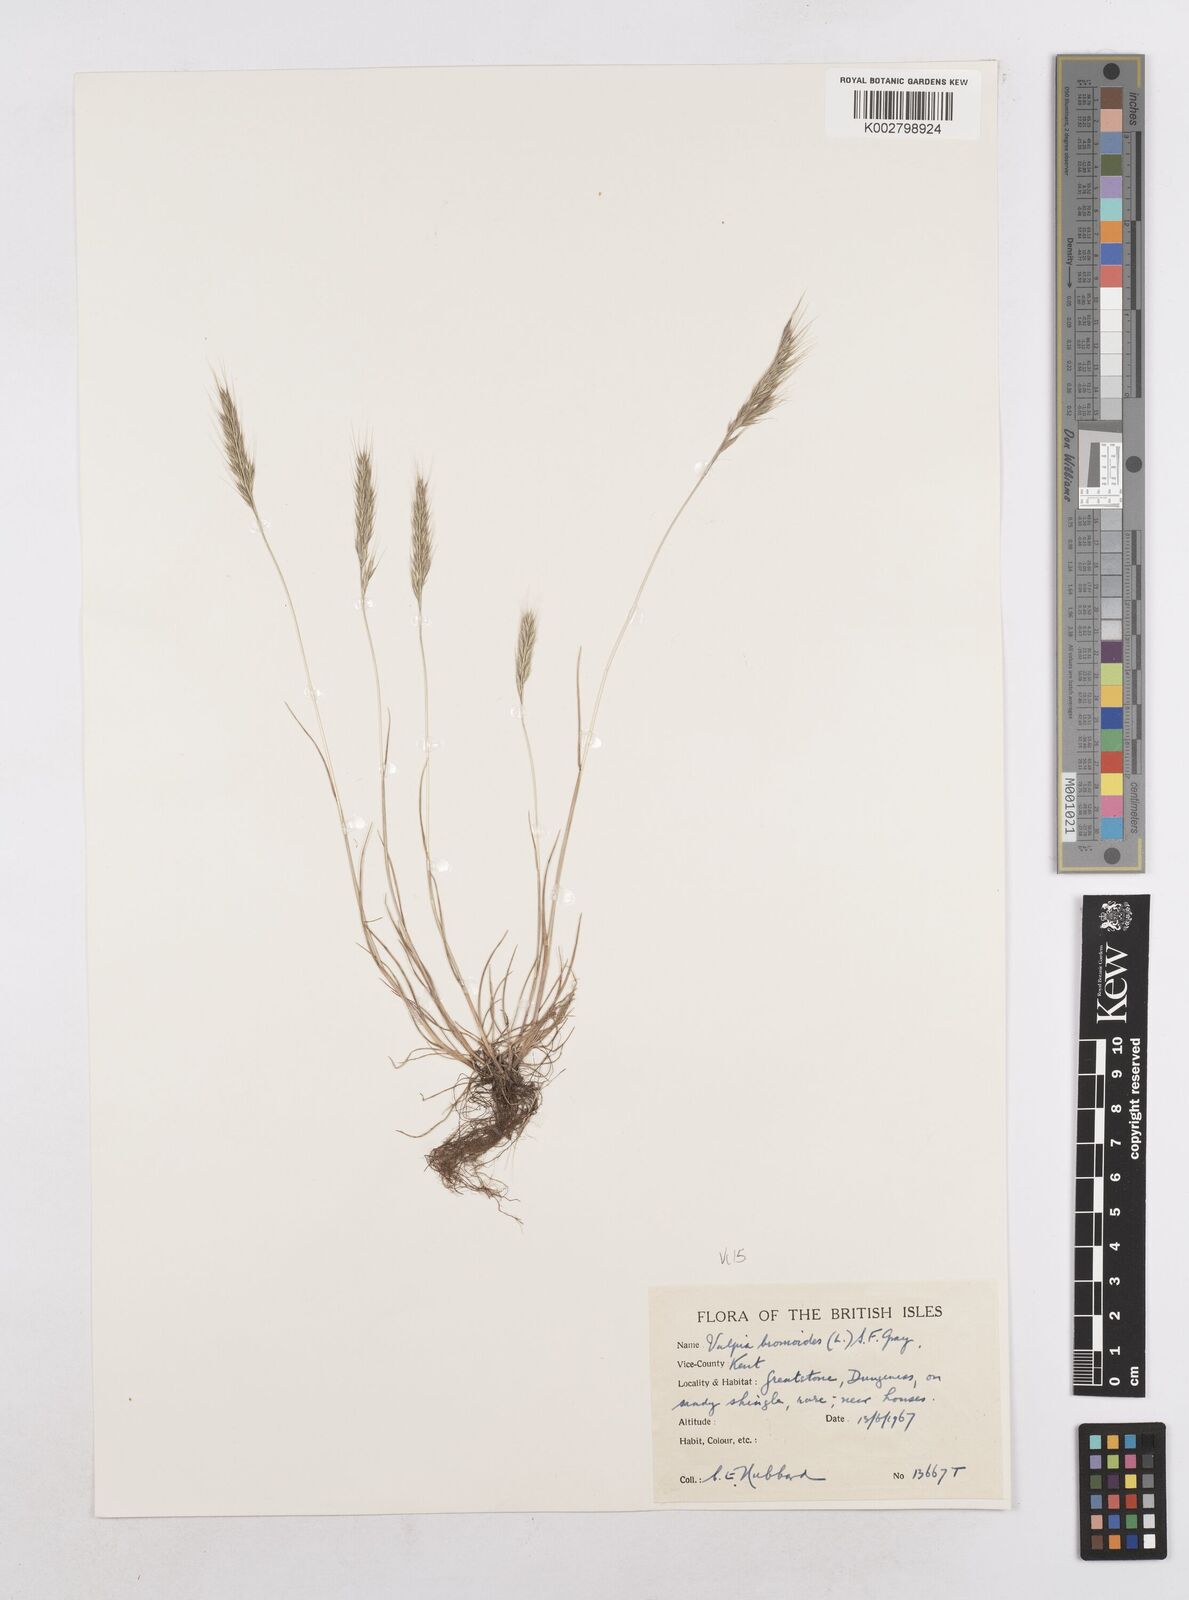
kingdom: Plantae
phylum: Tracheophyta
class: Liliopsida
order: Poales
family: Poaceae
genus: Festuca
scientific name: Festuca bromoides
